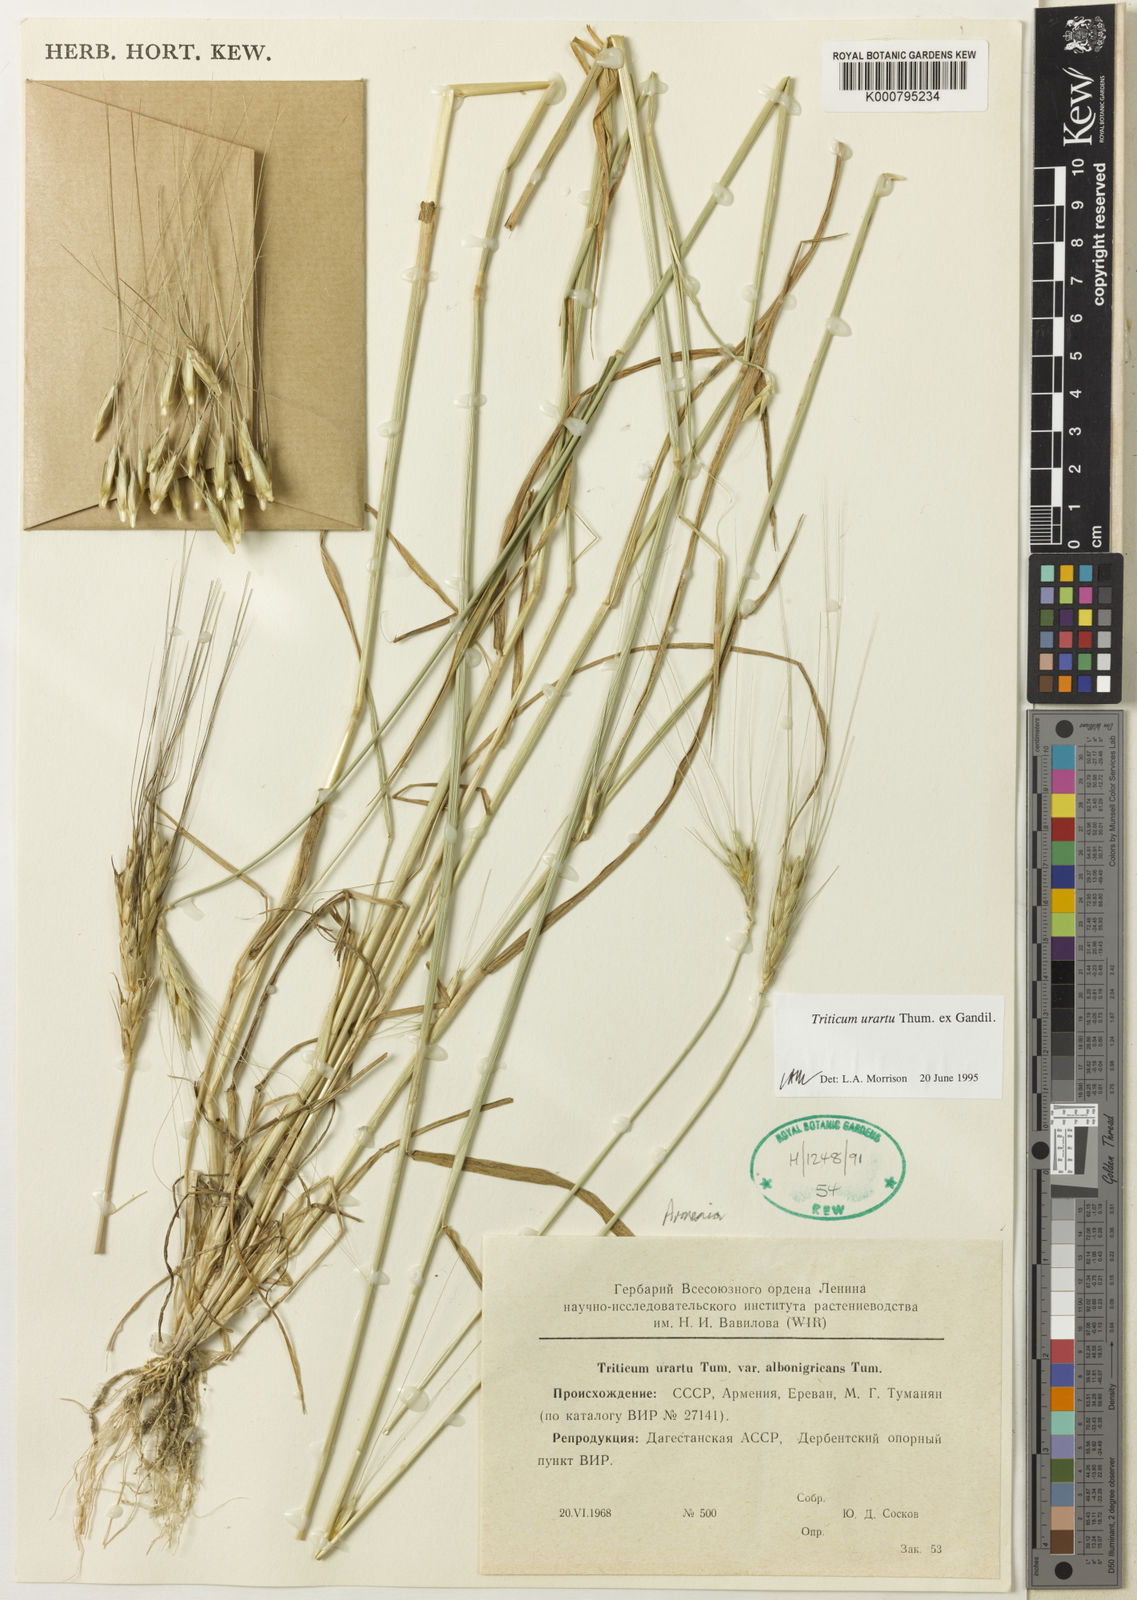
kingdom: Plantae
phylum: Tracheophyta
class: Liliopsida
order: Poales
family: Poaceae
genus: Triticum
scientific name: Triticum urartu
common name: Red wild einkorn
